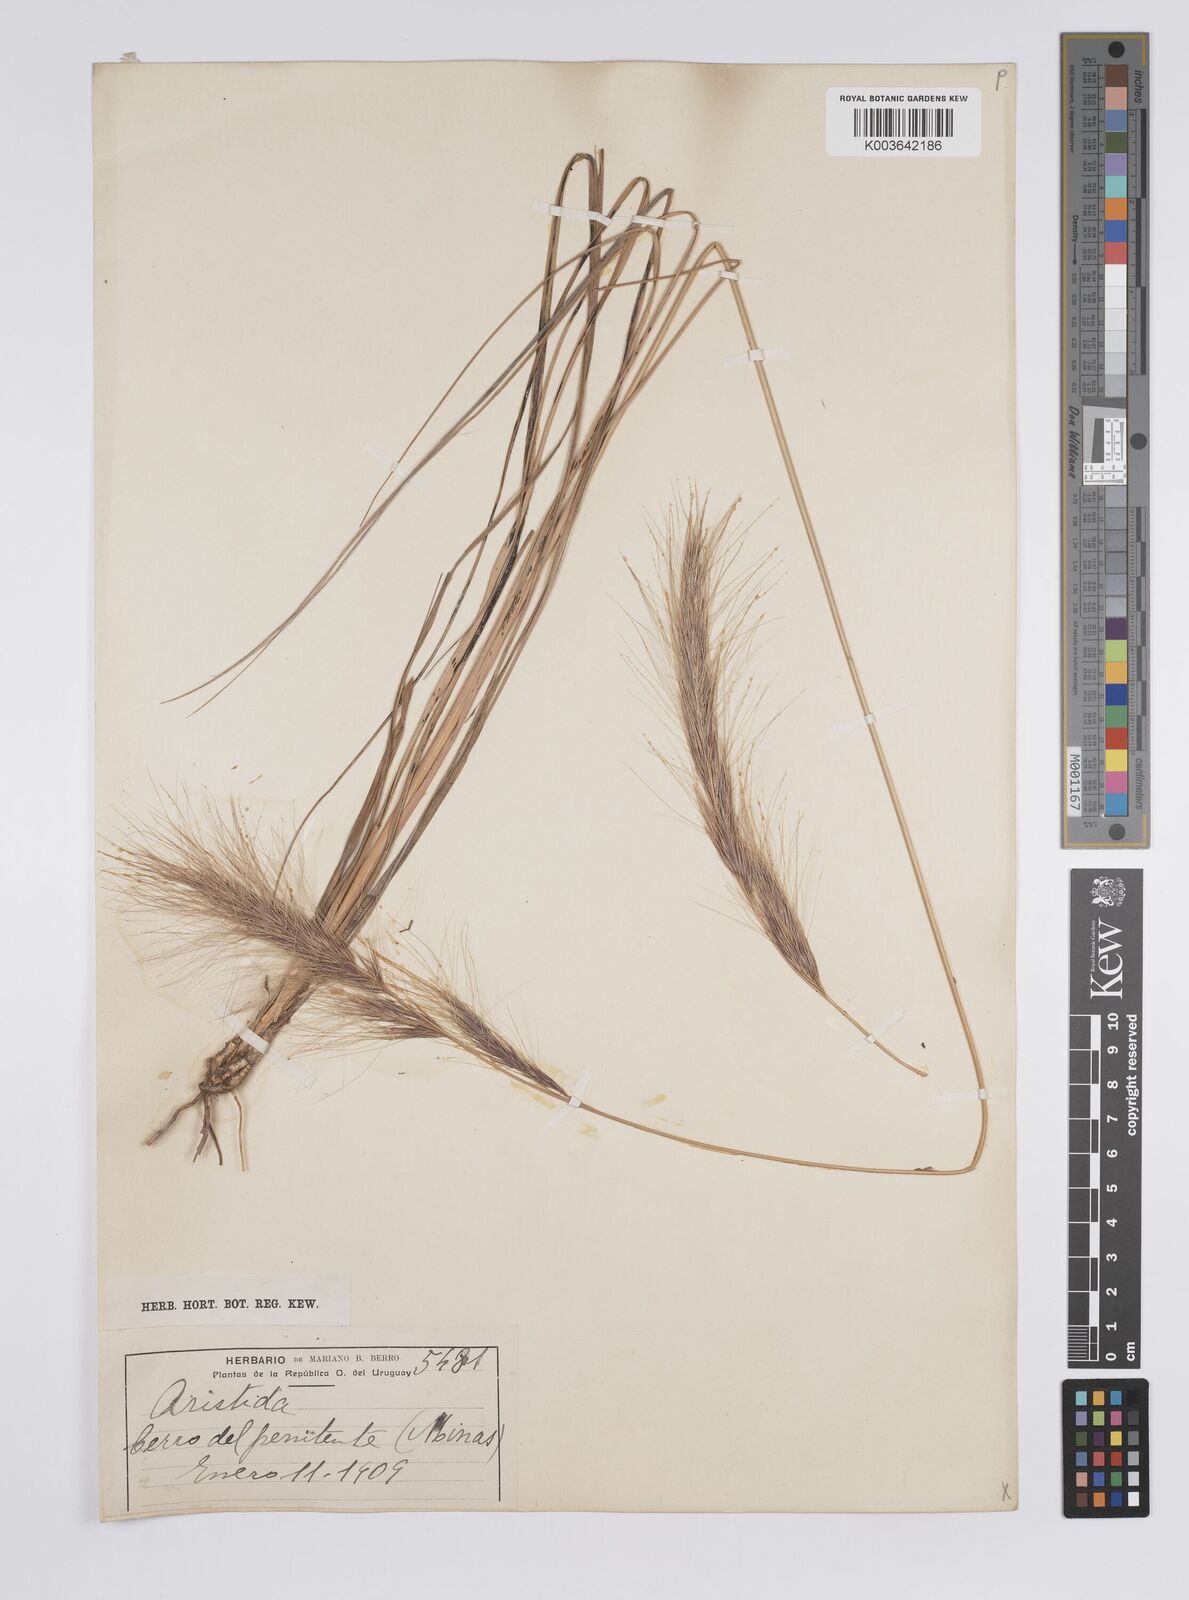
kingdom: Plantae
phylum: Tracheophyta
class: Liliopsida
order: Poales
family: Poaceae
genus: Aristida
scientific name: Aristida
